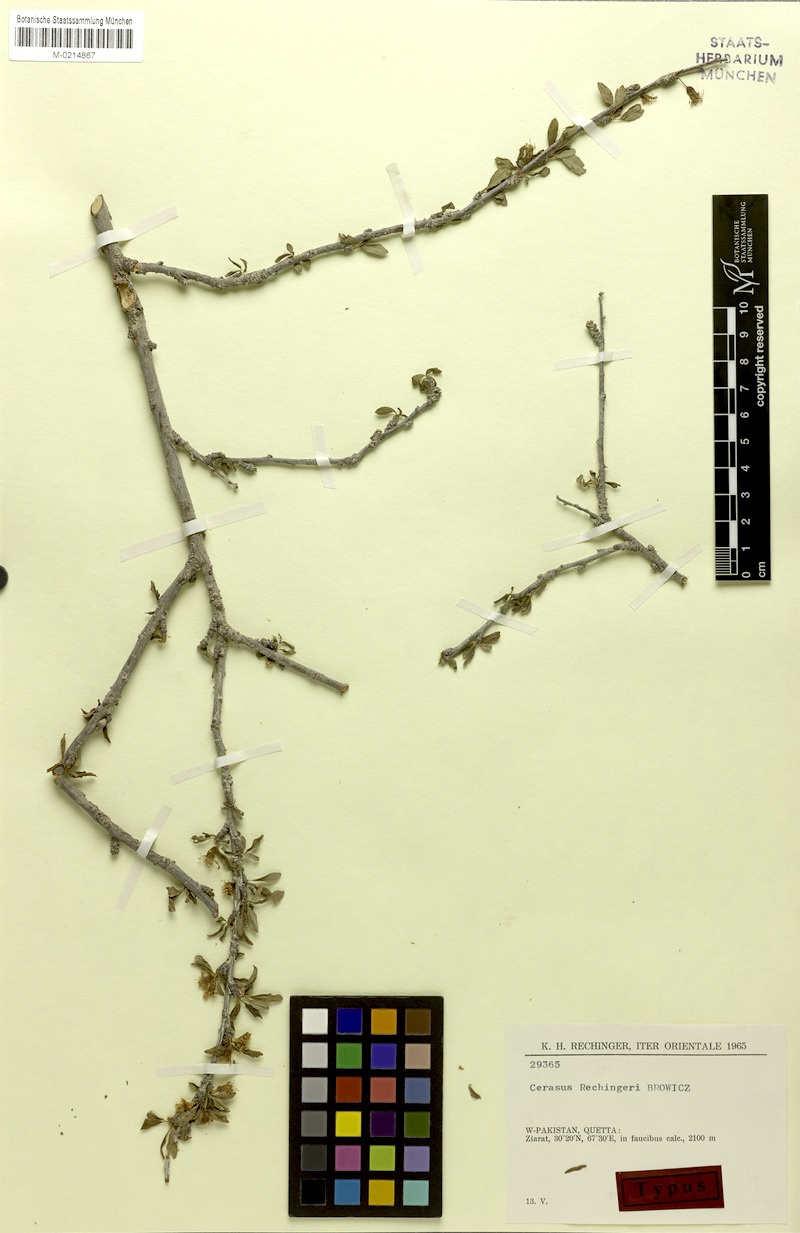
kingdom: Plantae
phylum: Tracheophyta
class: Magnoliopsida
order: Rosales
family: Rosaceae
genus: Prunus
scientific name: Prunus rechingeri
